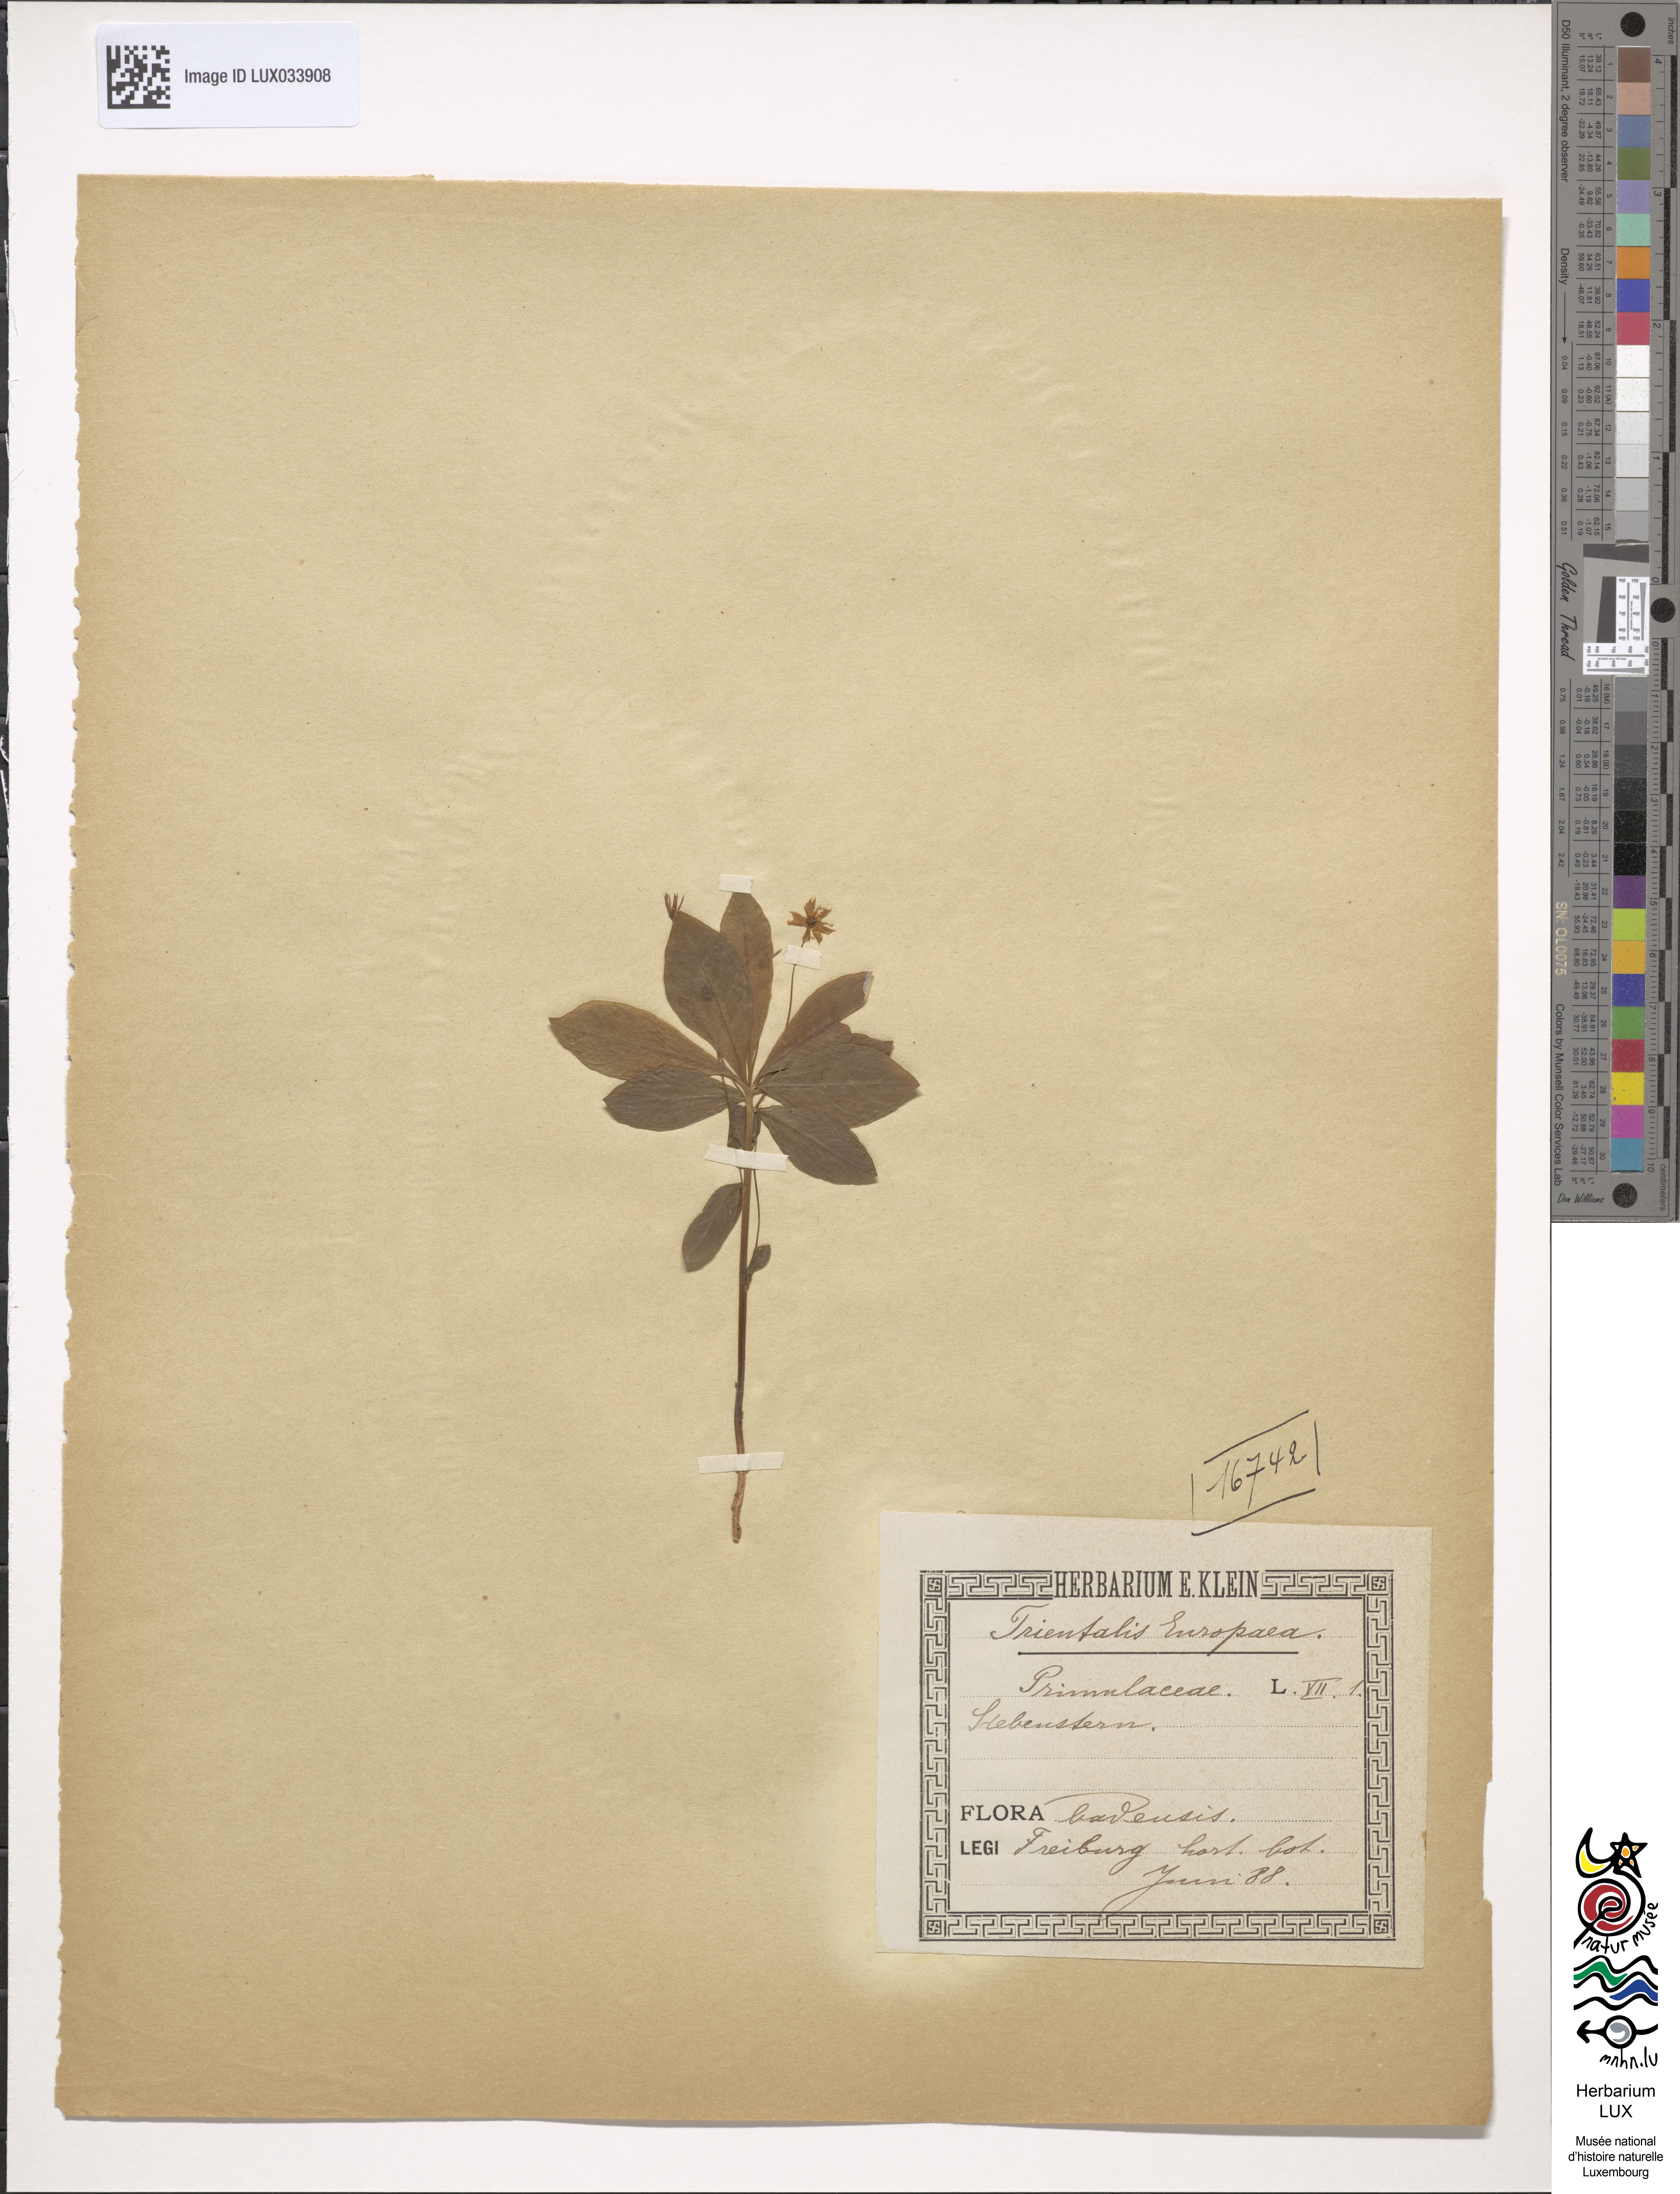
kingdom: Plantae
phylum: Tracheophyta
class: Magnoliopsida
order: Ericales
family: Primulaceae
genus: Lysimachia
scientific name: Lysimachia europaea
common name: Arctic starflower
